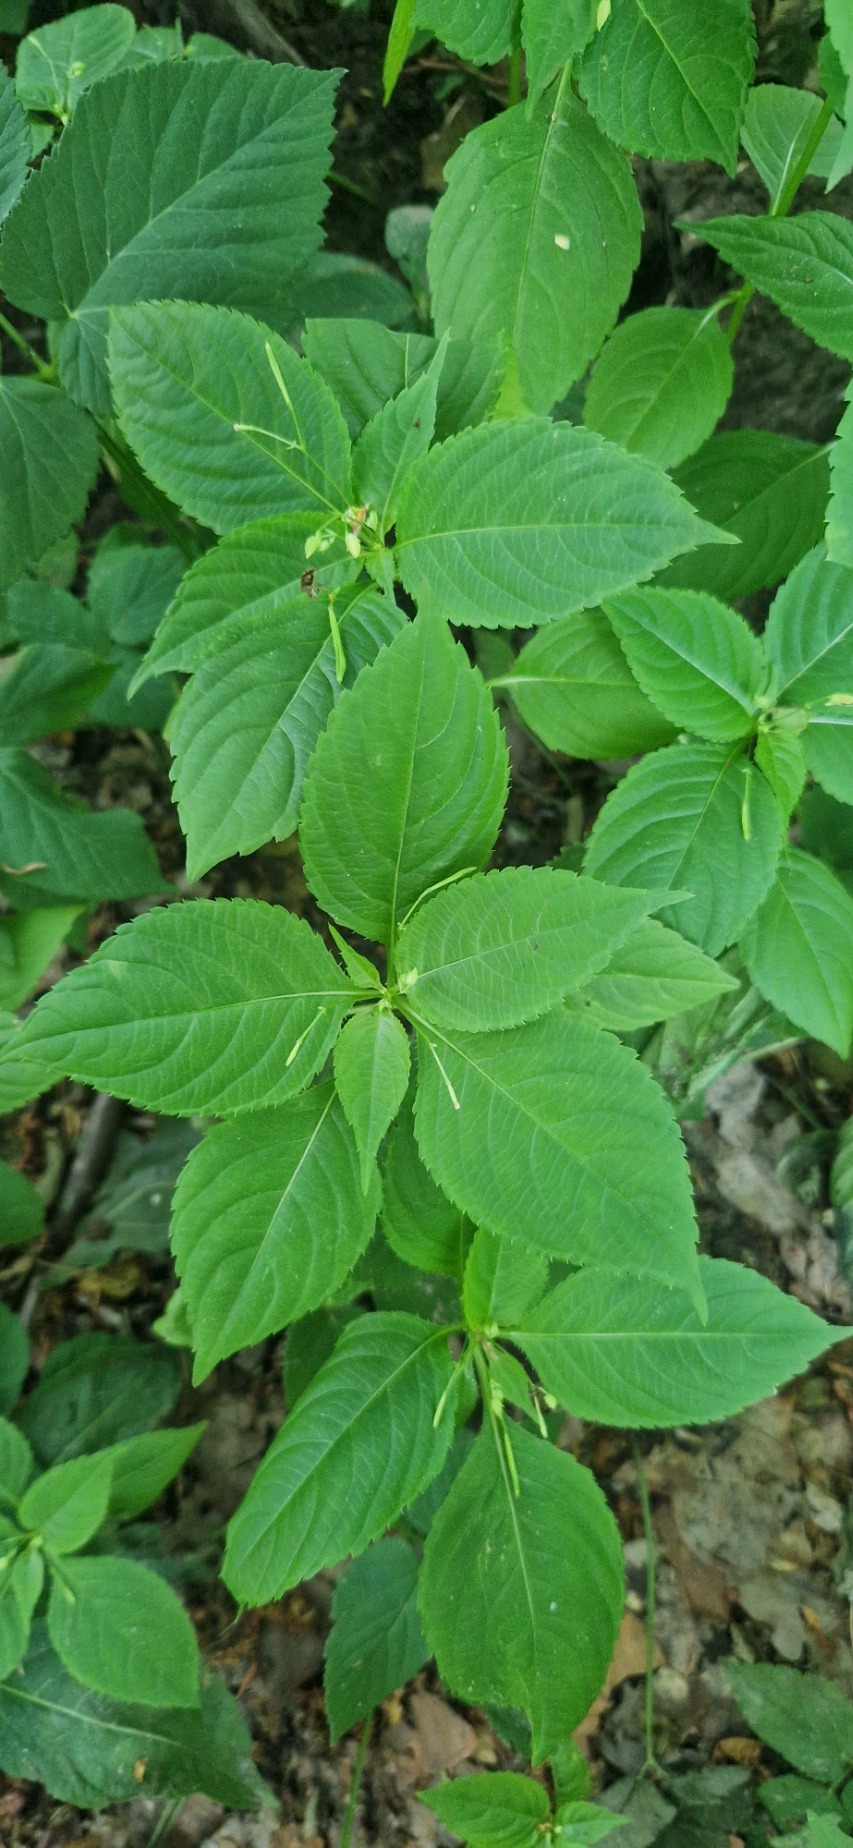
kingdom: Plantae
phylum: Tracheophyta
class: Magnoliopsida
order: Ericales
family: Balsaminaceae
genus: Impatiens
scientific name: Impatiens parviflora
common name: Småblomstret balsamin
